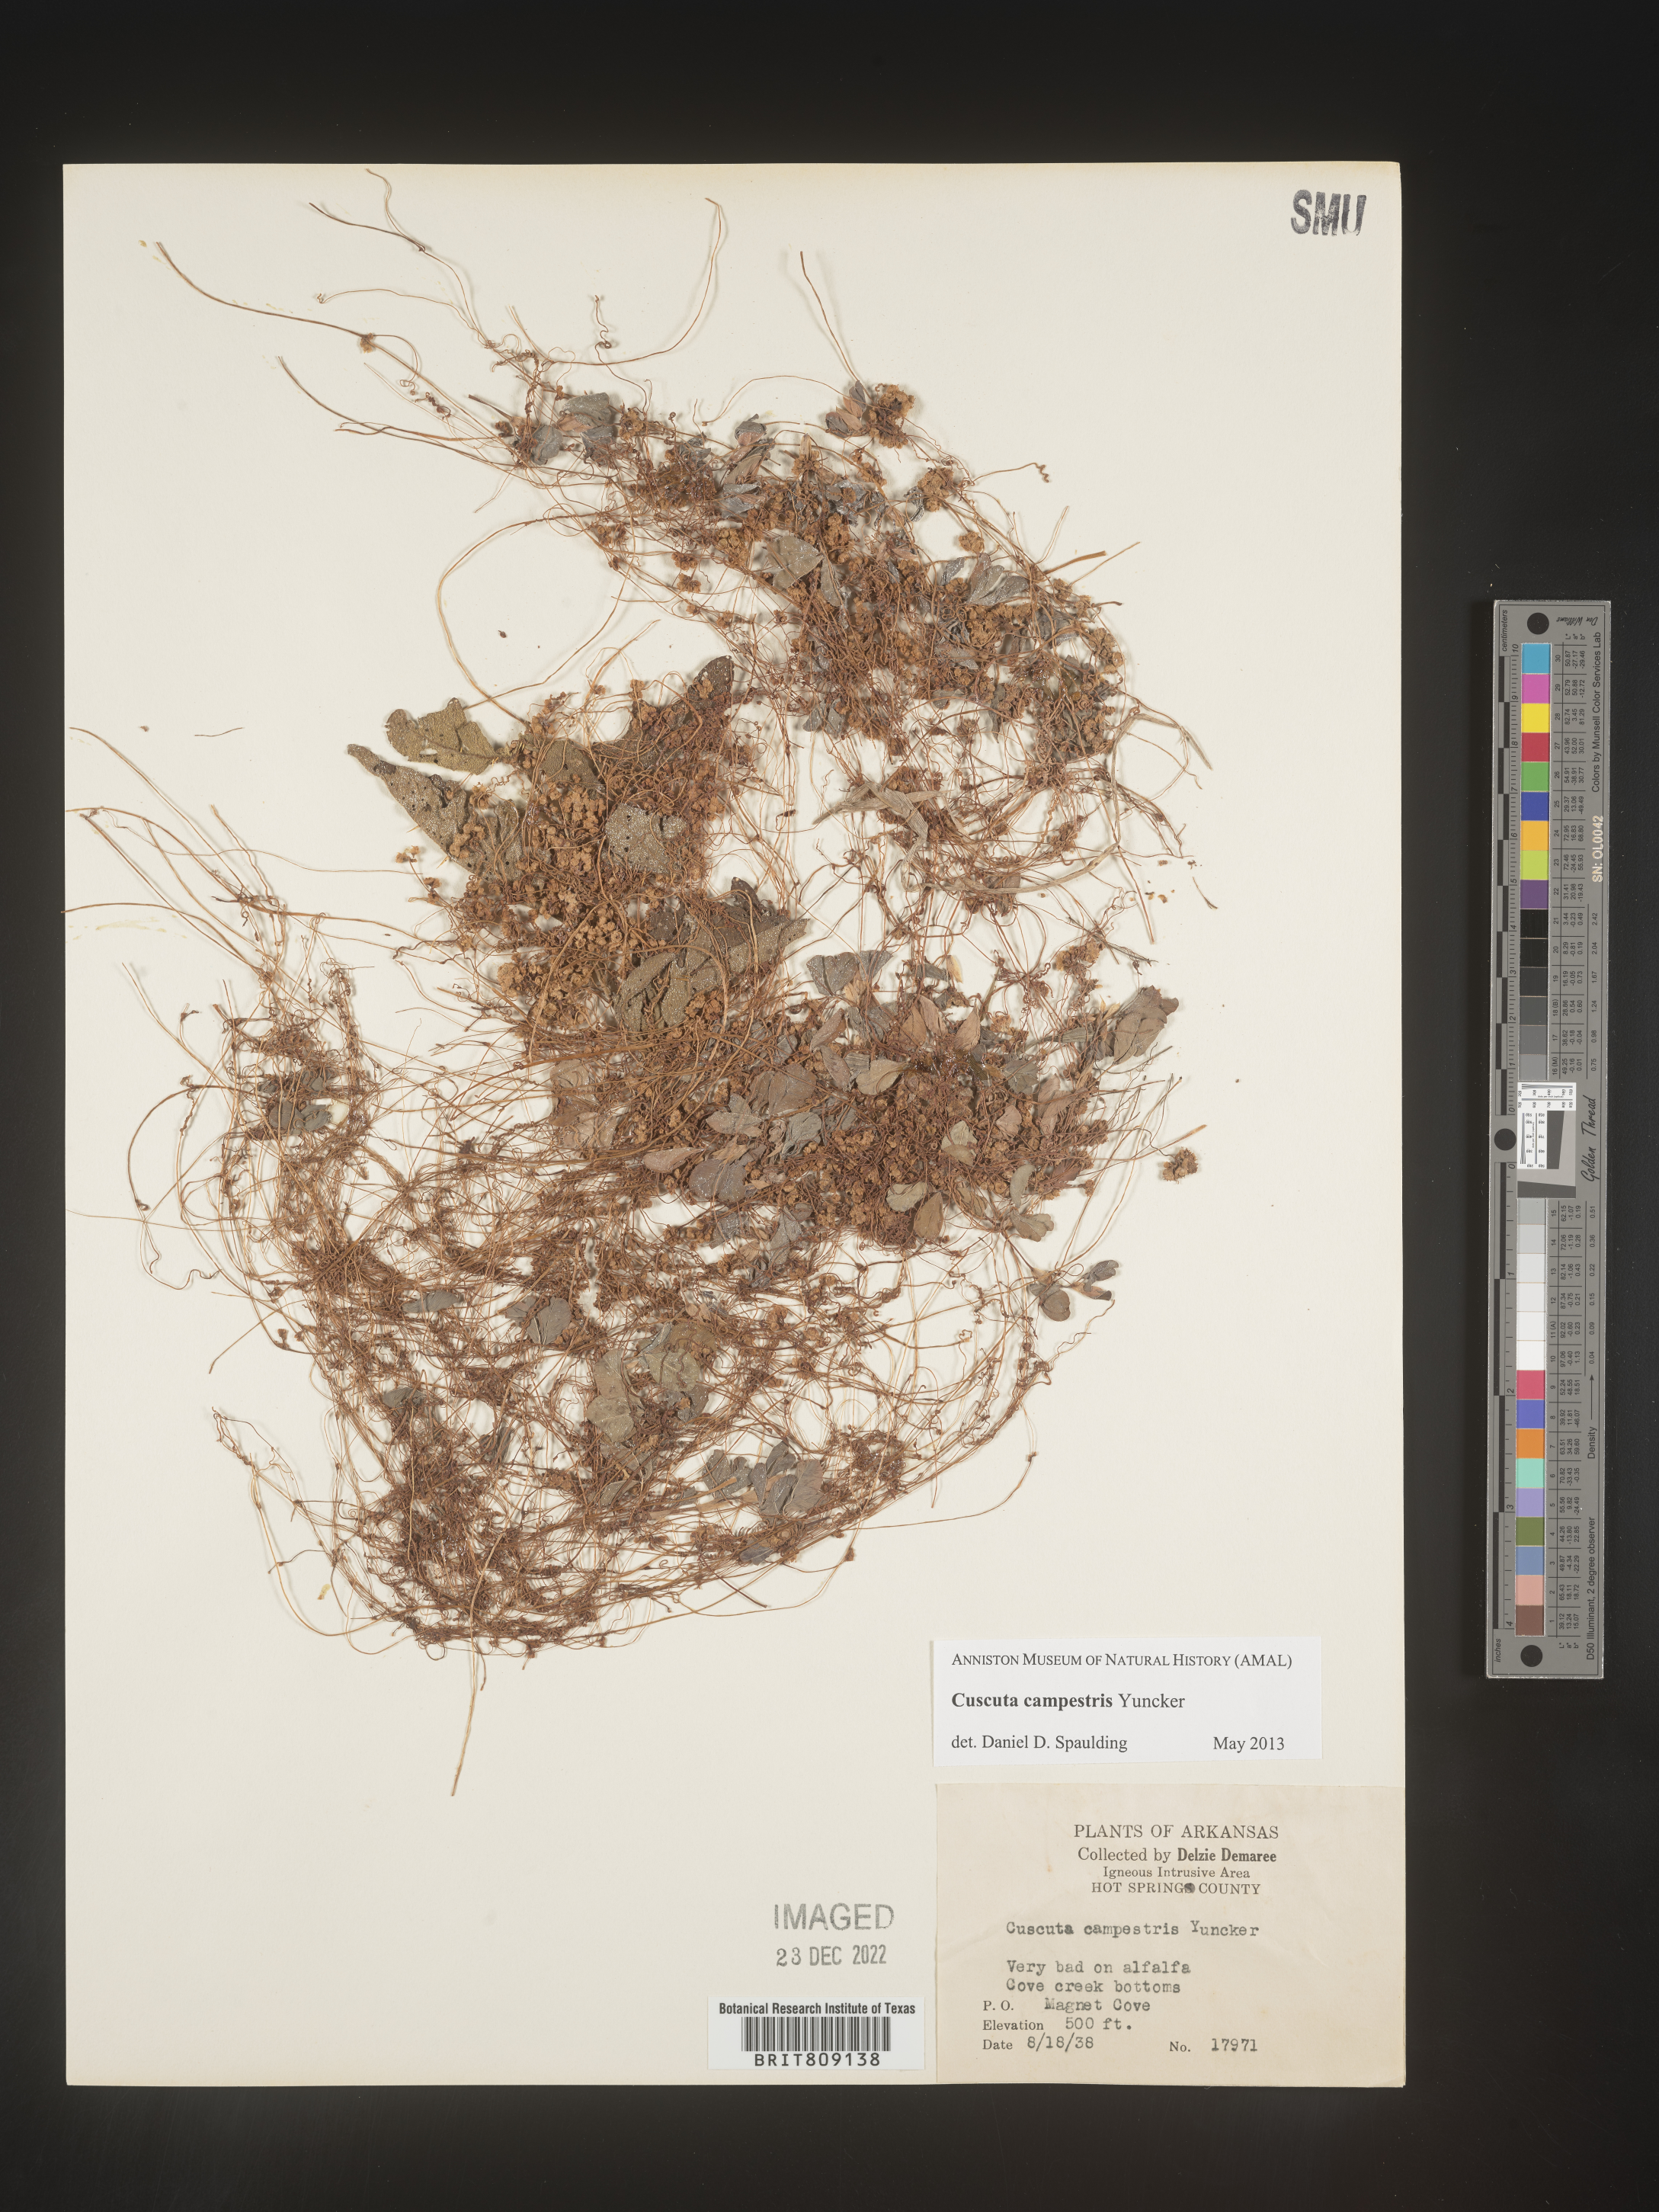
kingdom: Plantae
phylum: Tracheophyta
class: Magnoliopsida
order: Solanales
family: Convolvulaceae
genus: Cuscuta
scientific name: Cuscuta campestris
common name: Yellow dodder
